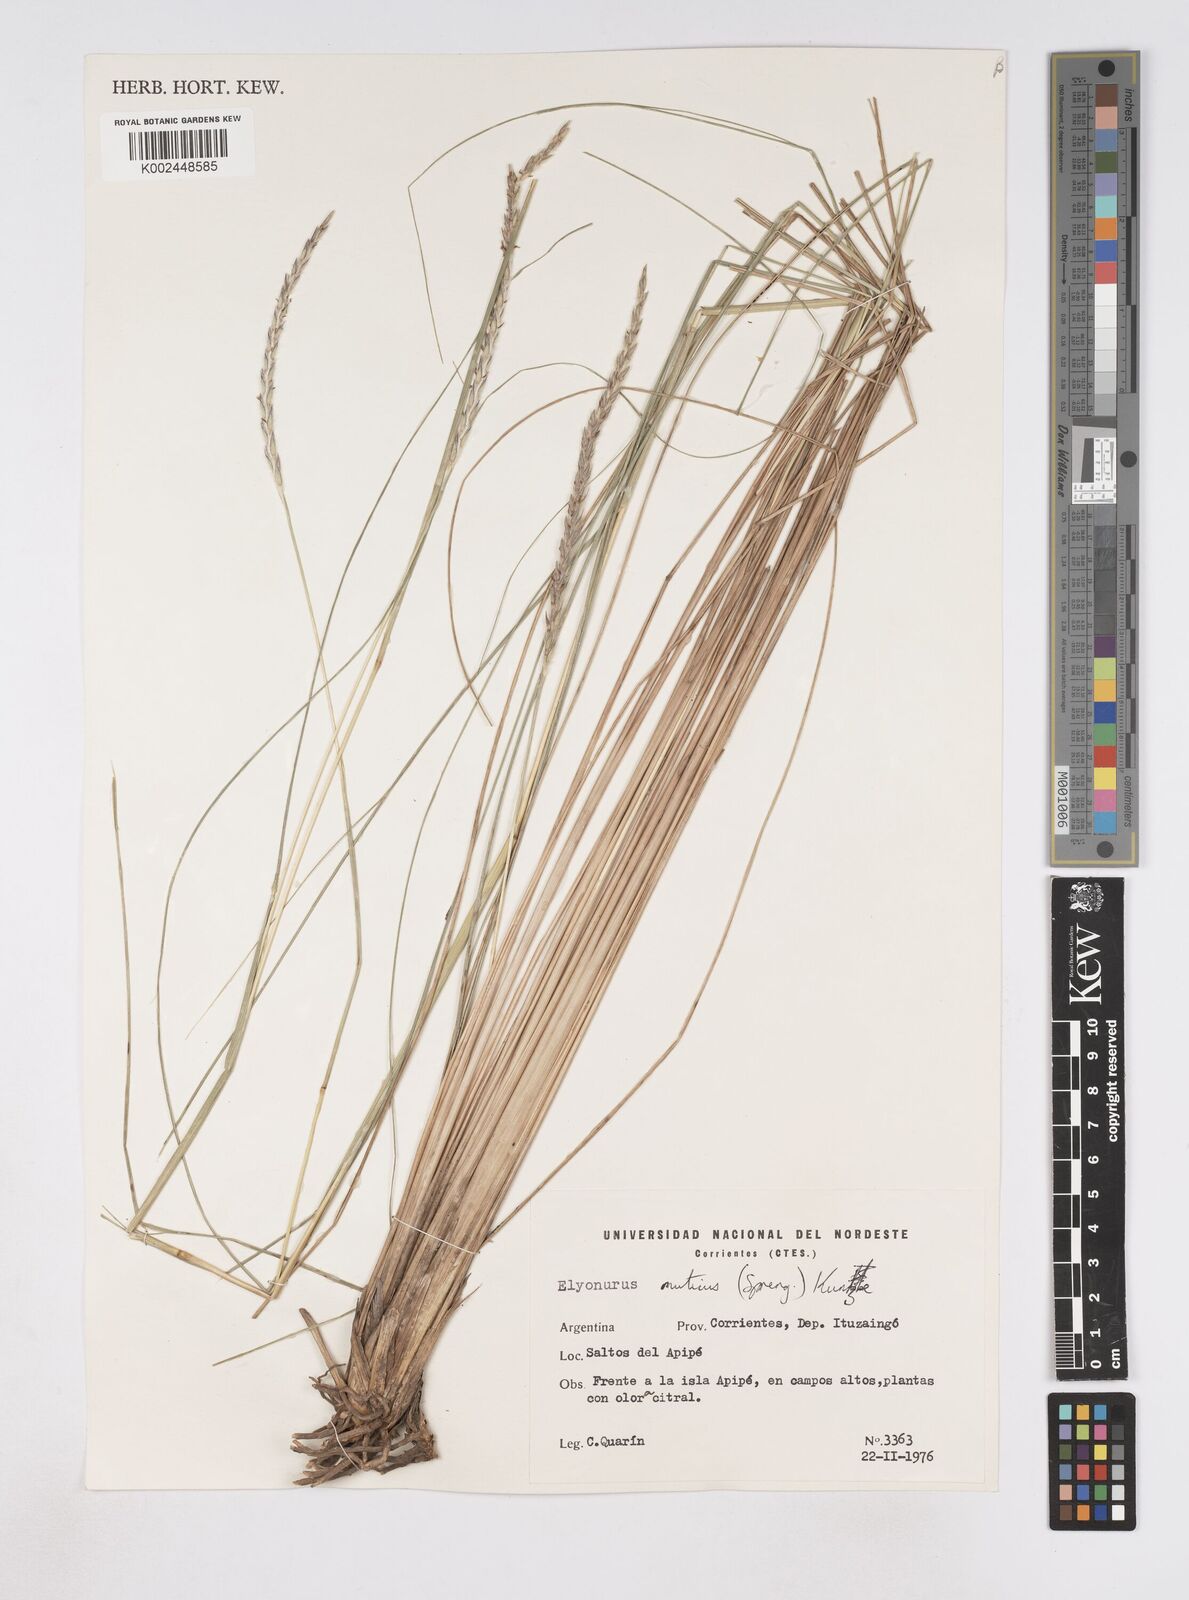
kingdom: Plantae
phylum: Tracheophyta
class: Liliopsida
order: Poales
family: Poaceae
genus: Elionurus
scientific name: Elionurus muticus
